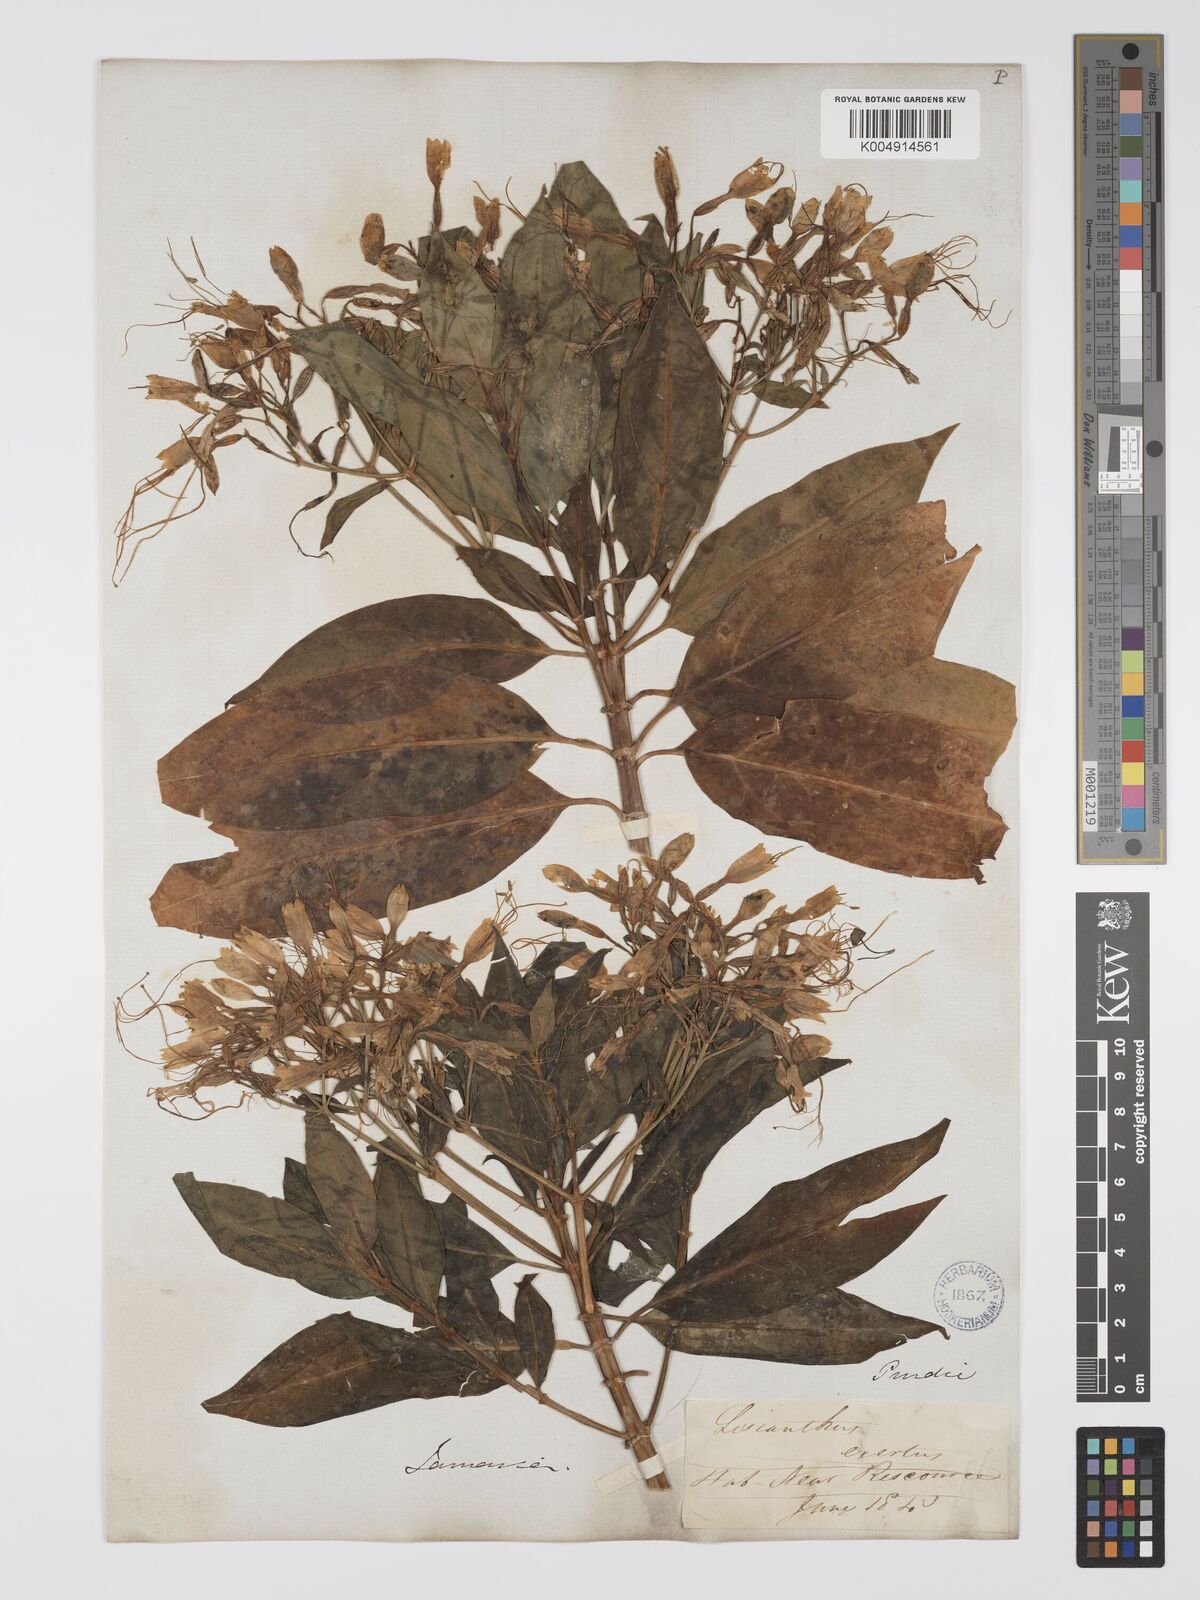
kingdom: Plantae
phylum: Tracheophyta
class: Magnoliopsida
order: Gentianales
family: Gentianaceae
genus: Lisianthus
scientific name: Lisianthus exsertus
